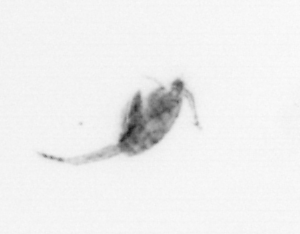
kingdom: Animalia
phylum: Arthropoda
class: Copepoda
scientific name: Copepoda
